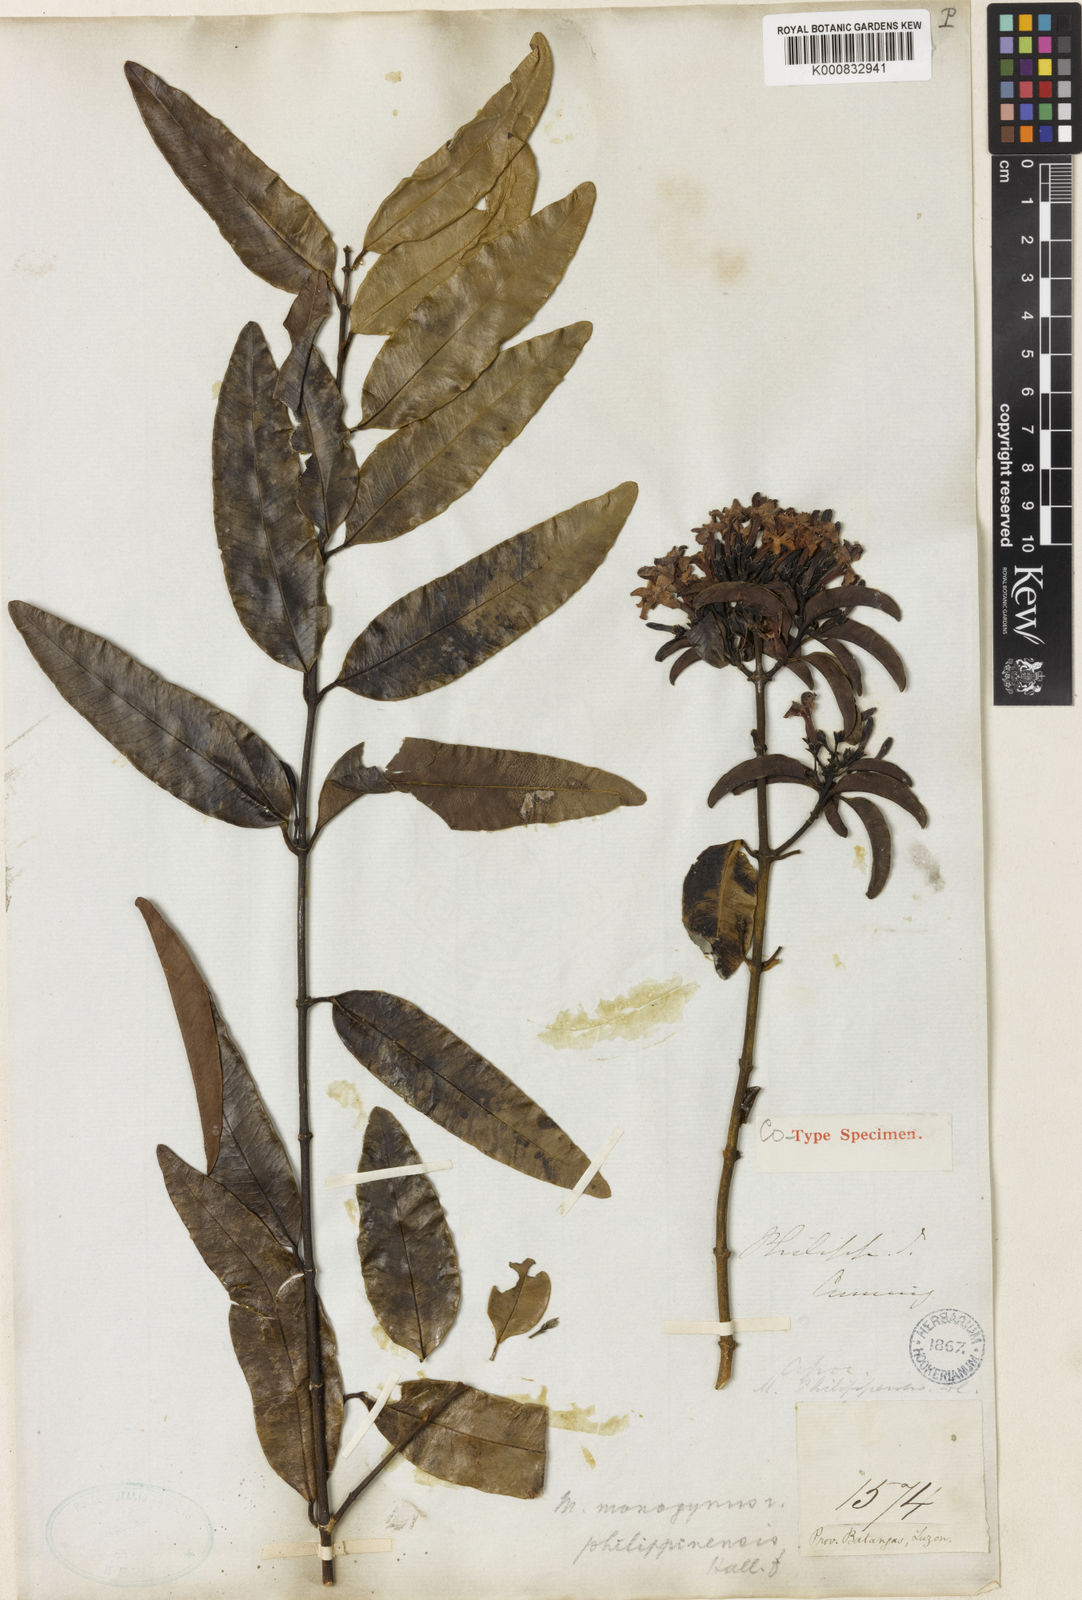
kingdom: Plantae
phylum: Tracheophyta
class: Magnoliopsida
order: Gentianales
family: Apocynaceae
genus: Melodinus
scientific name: Melodinus
